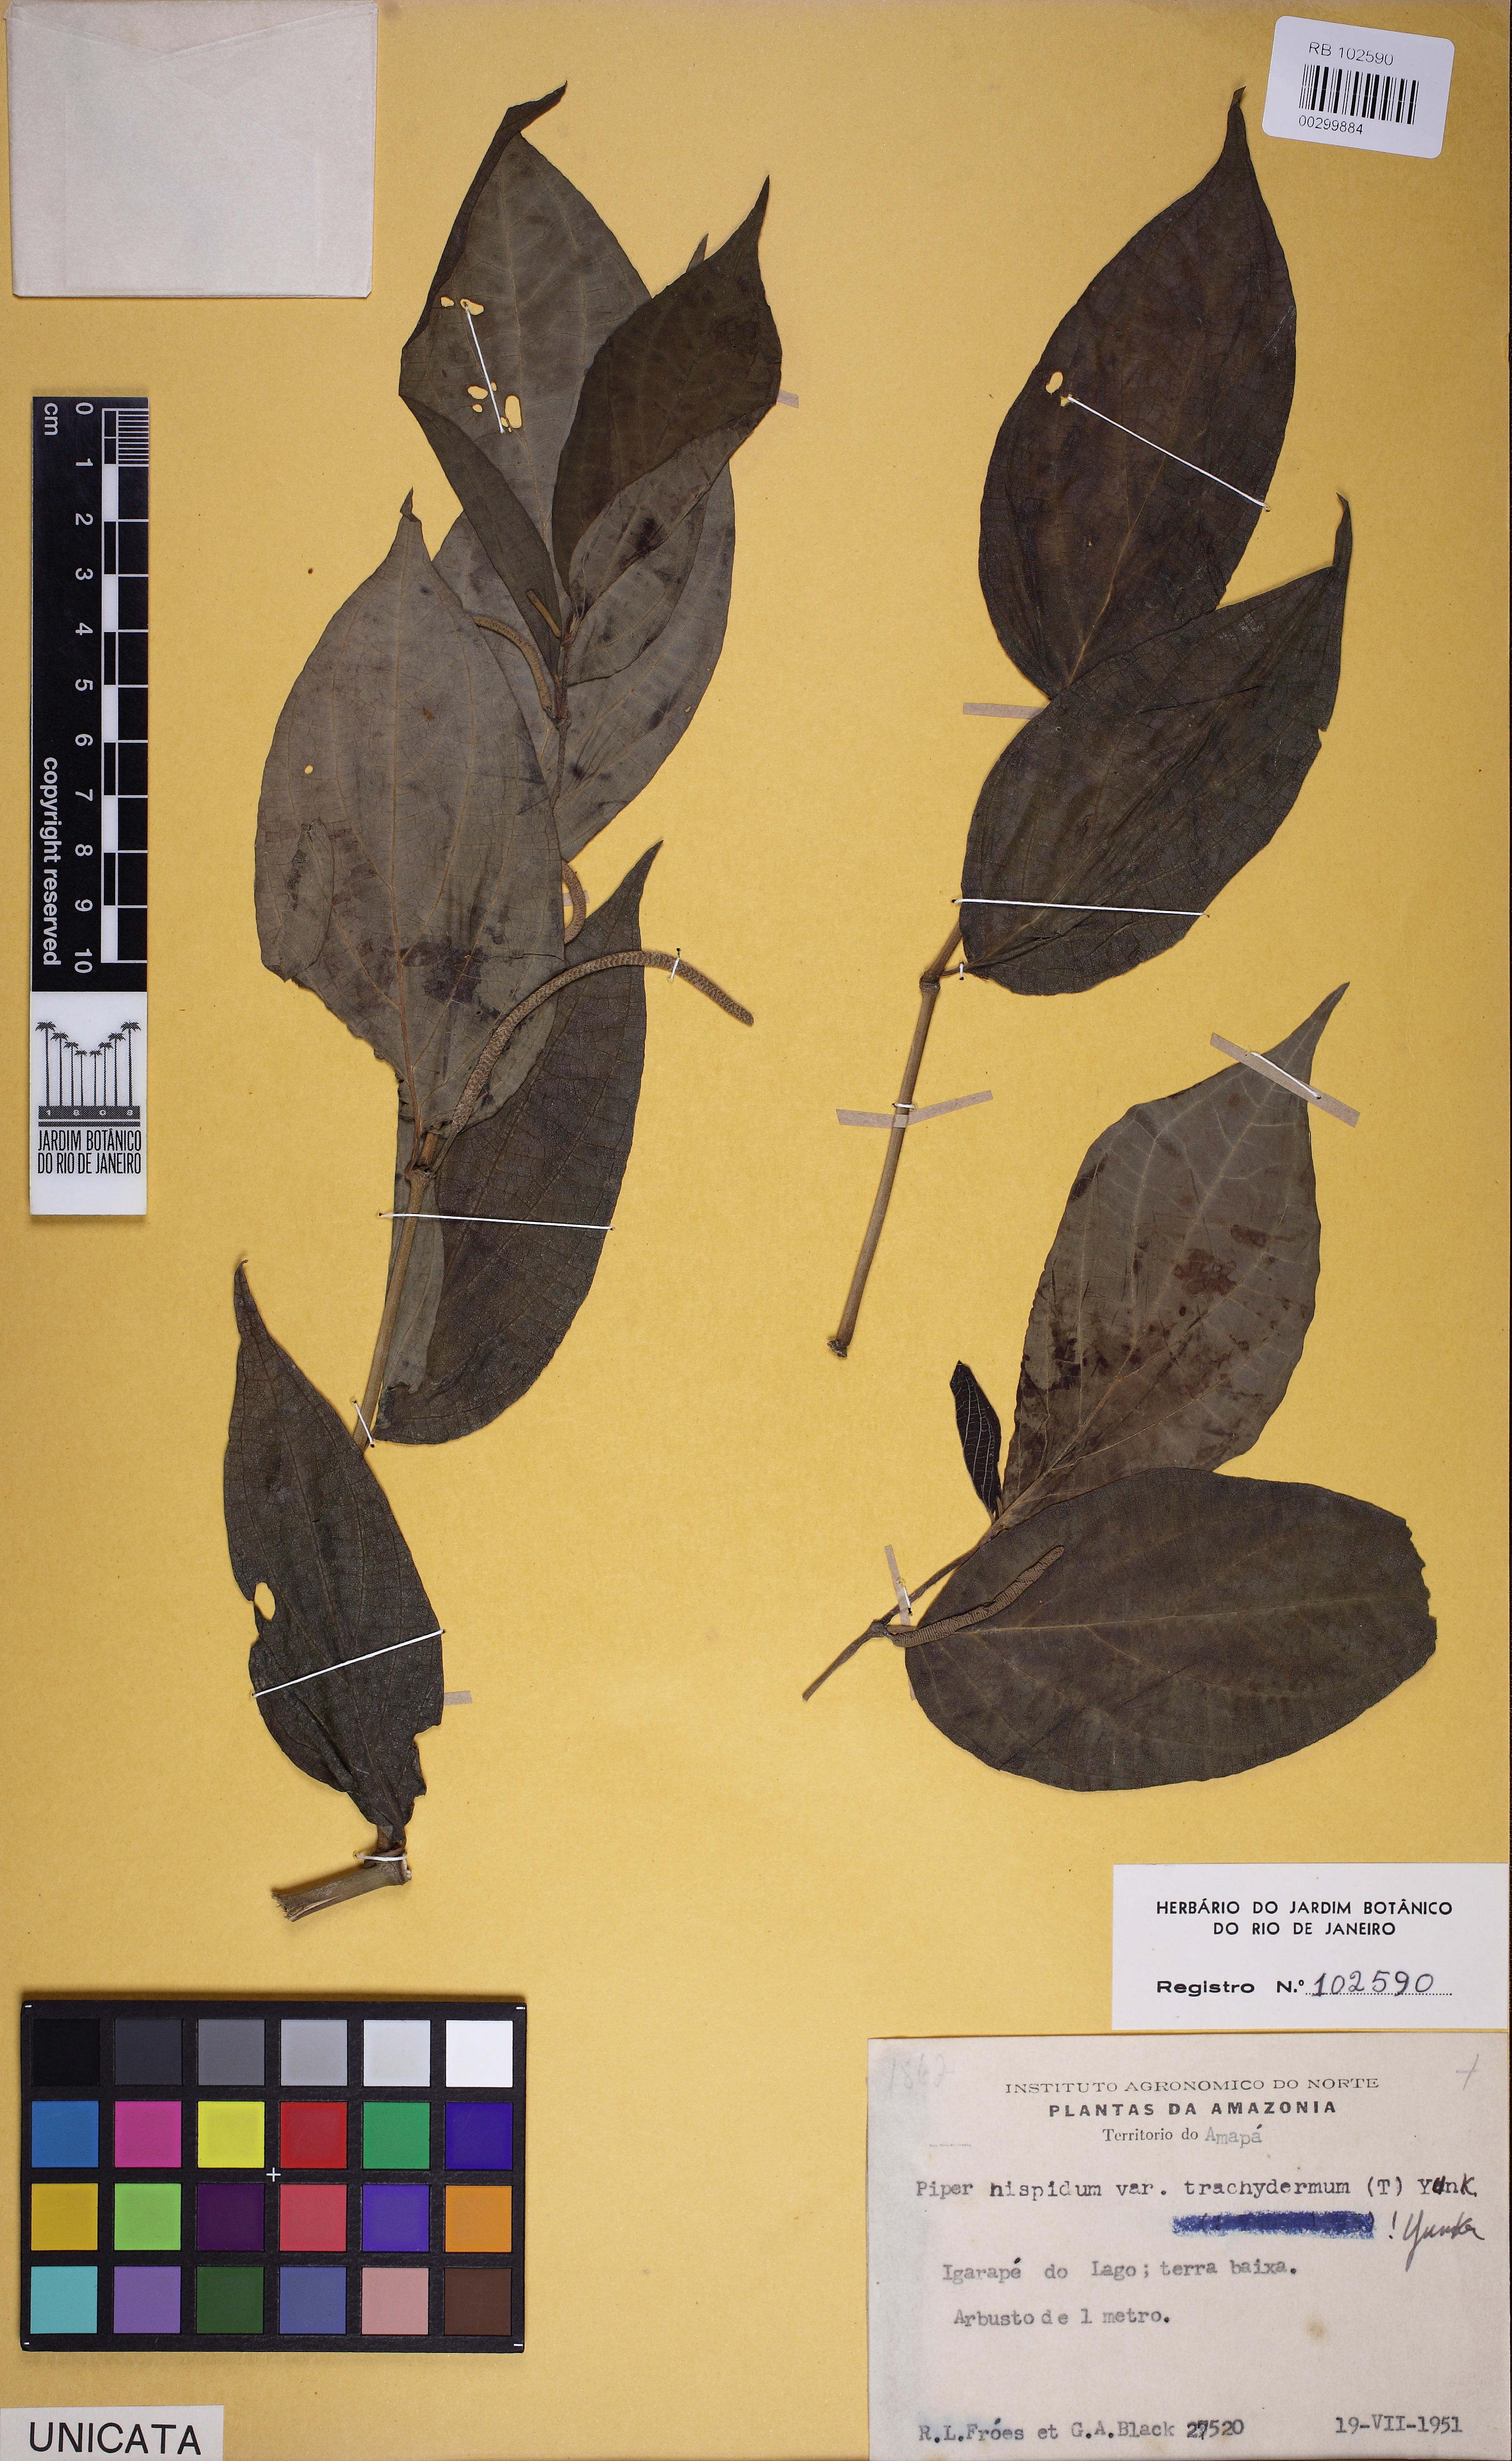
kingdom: Plantae
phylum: Tracheophyta
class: Magnoliopsida
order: Piperales
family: Piperaceae
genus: Piper
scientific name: Piper hispidum
